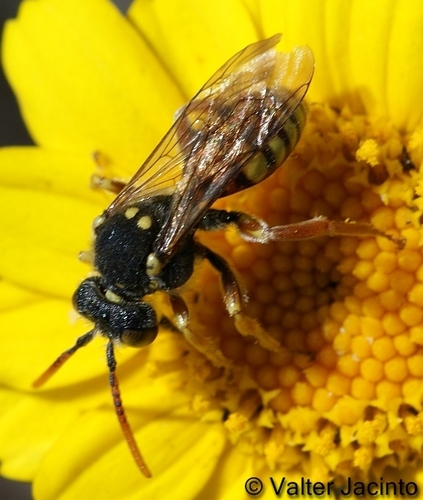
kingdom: Animalia
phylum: Arthropoda
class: Insecta
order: Hymenoptera
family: Apidae
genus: Nomada
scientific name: Nomada fulvicornis
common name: Orange-horned nomad bee
